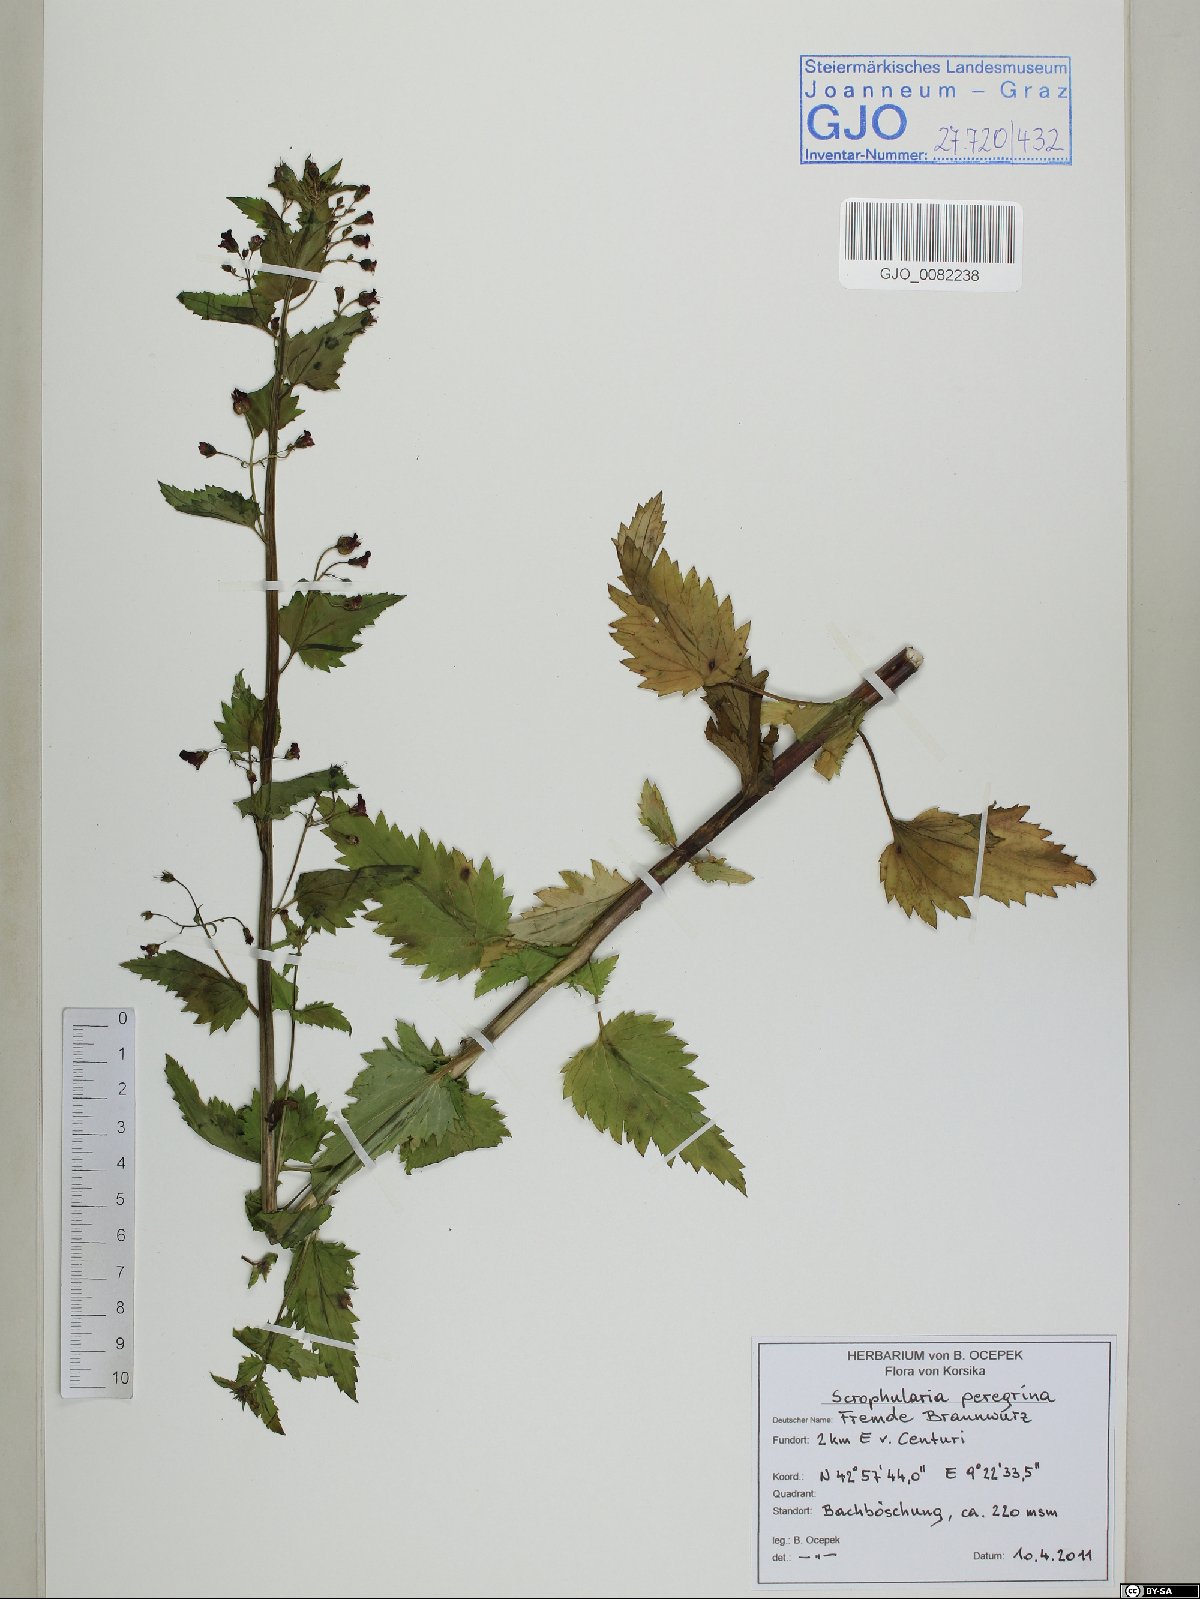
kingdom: Plantae
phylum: Tracheophyta
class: Magnoliopsida
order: Lamiales
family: Scrophulariaceae
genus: Scrophularia
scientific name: Scrophularia peregrina
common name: Mediterranean figwort
